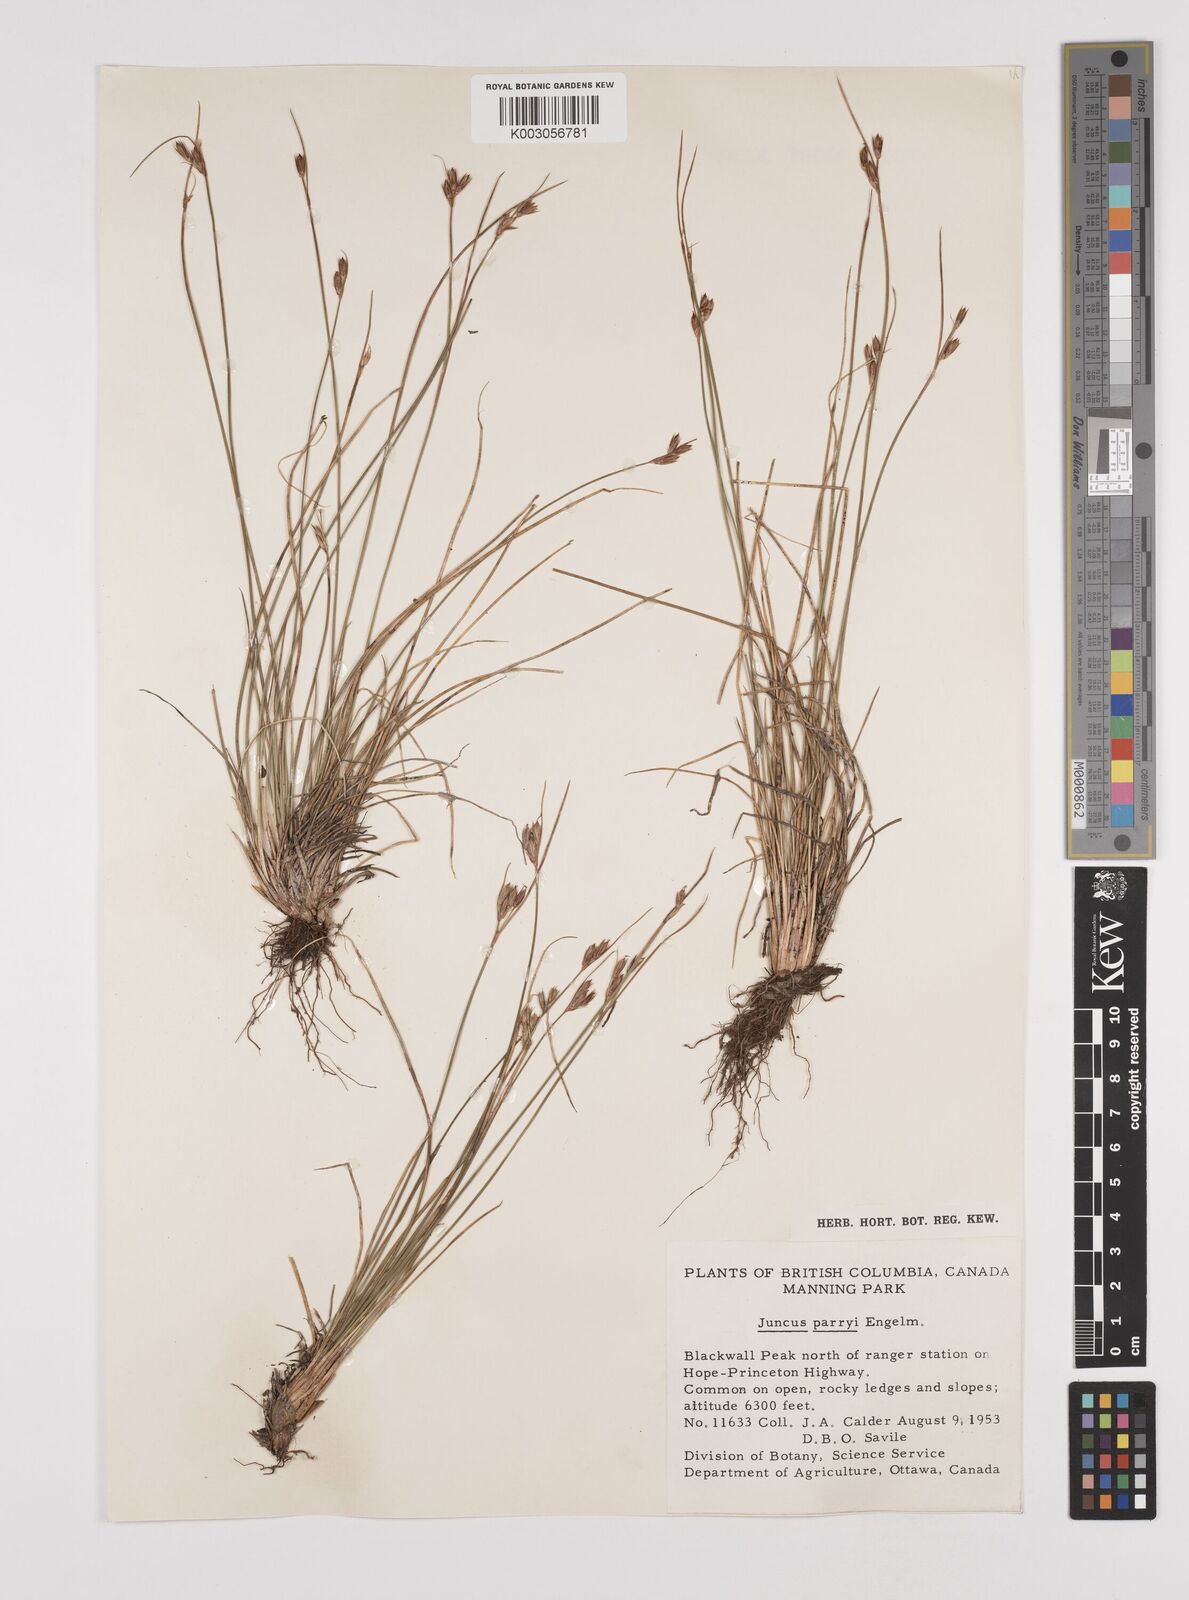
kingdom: Plantae
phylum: Tracheophyta
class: Liliopsida
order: Poales
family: Juncaceae
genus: Juncus
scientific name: Juncus parryi
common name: Parry's rush
